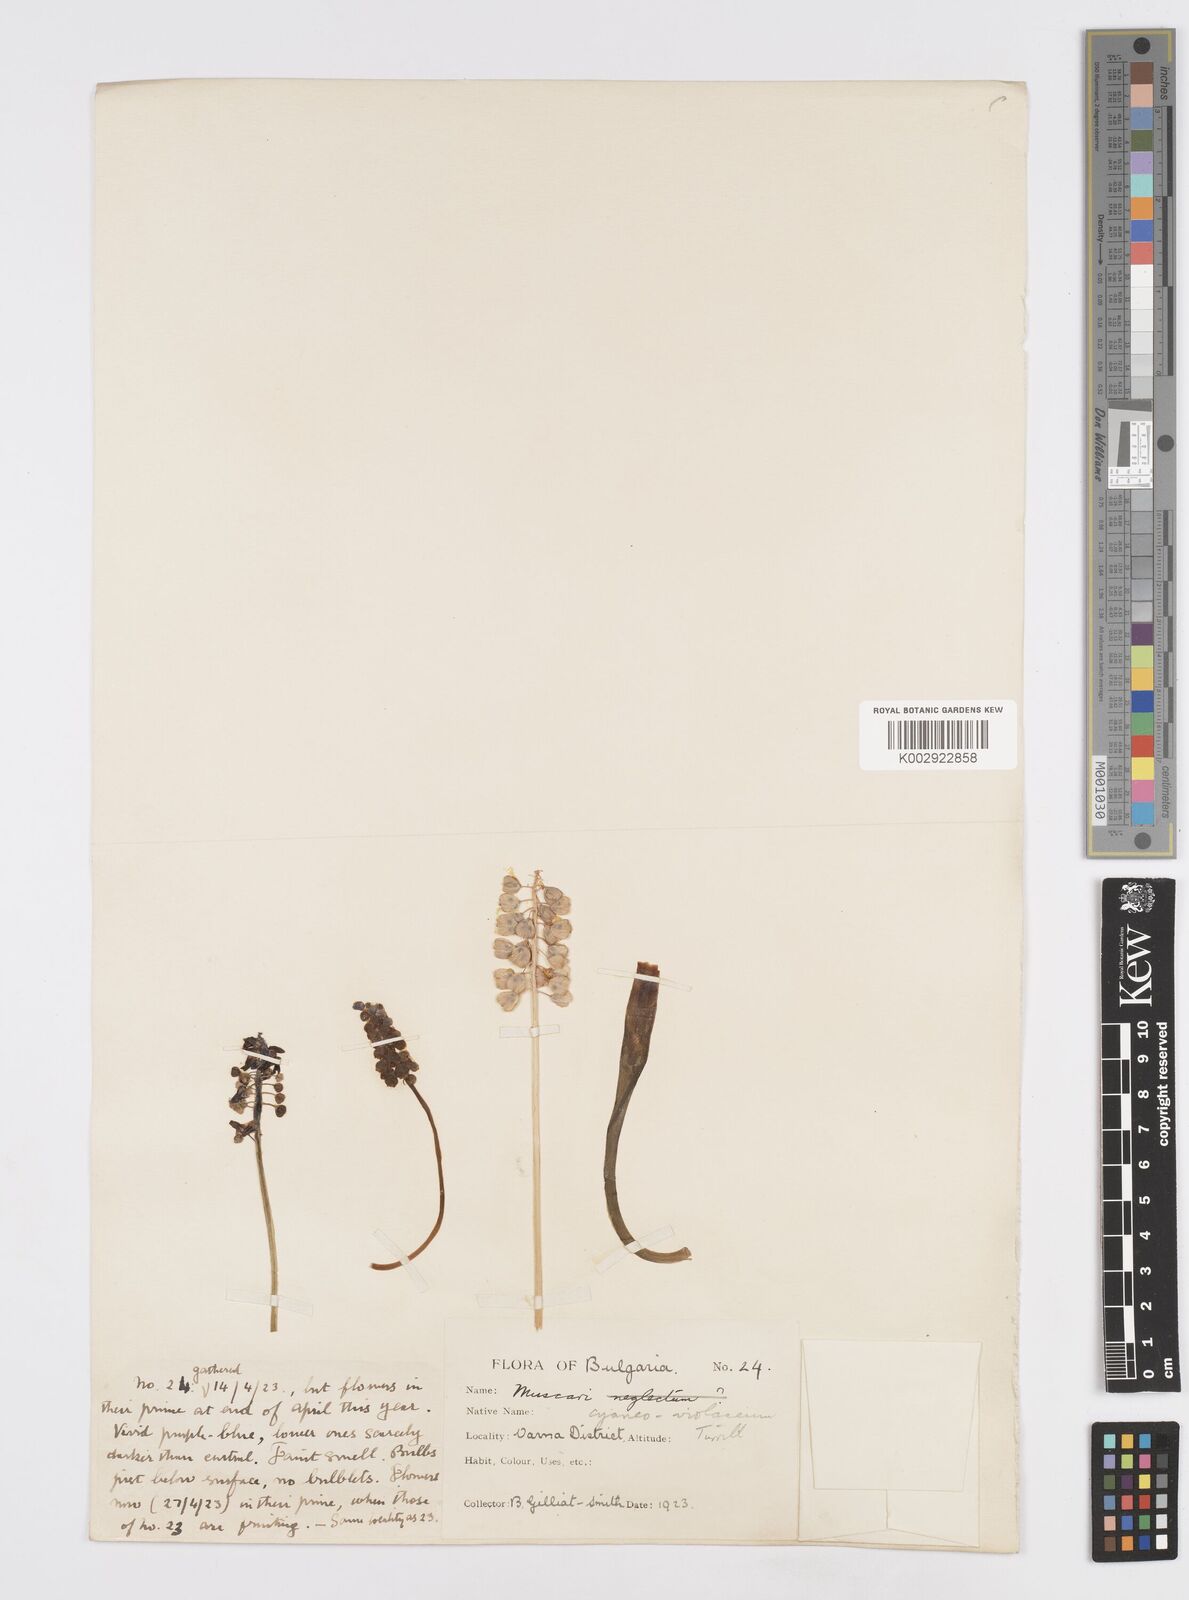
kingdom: Plantae
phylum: Tracheophyta
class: Liliopsida
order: Asparagales
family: Asparagaceae
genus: Muscari
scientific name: Muscari armeniacum
